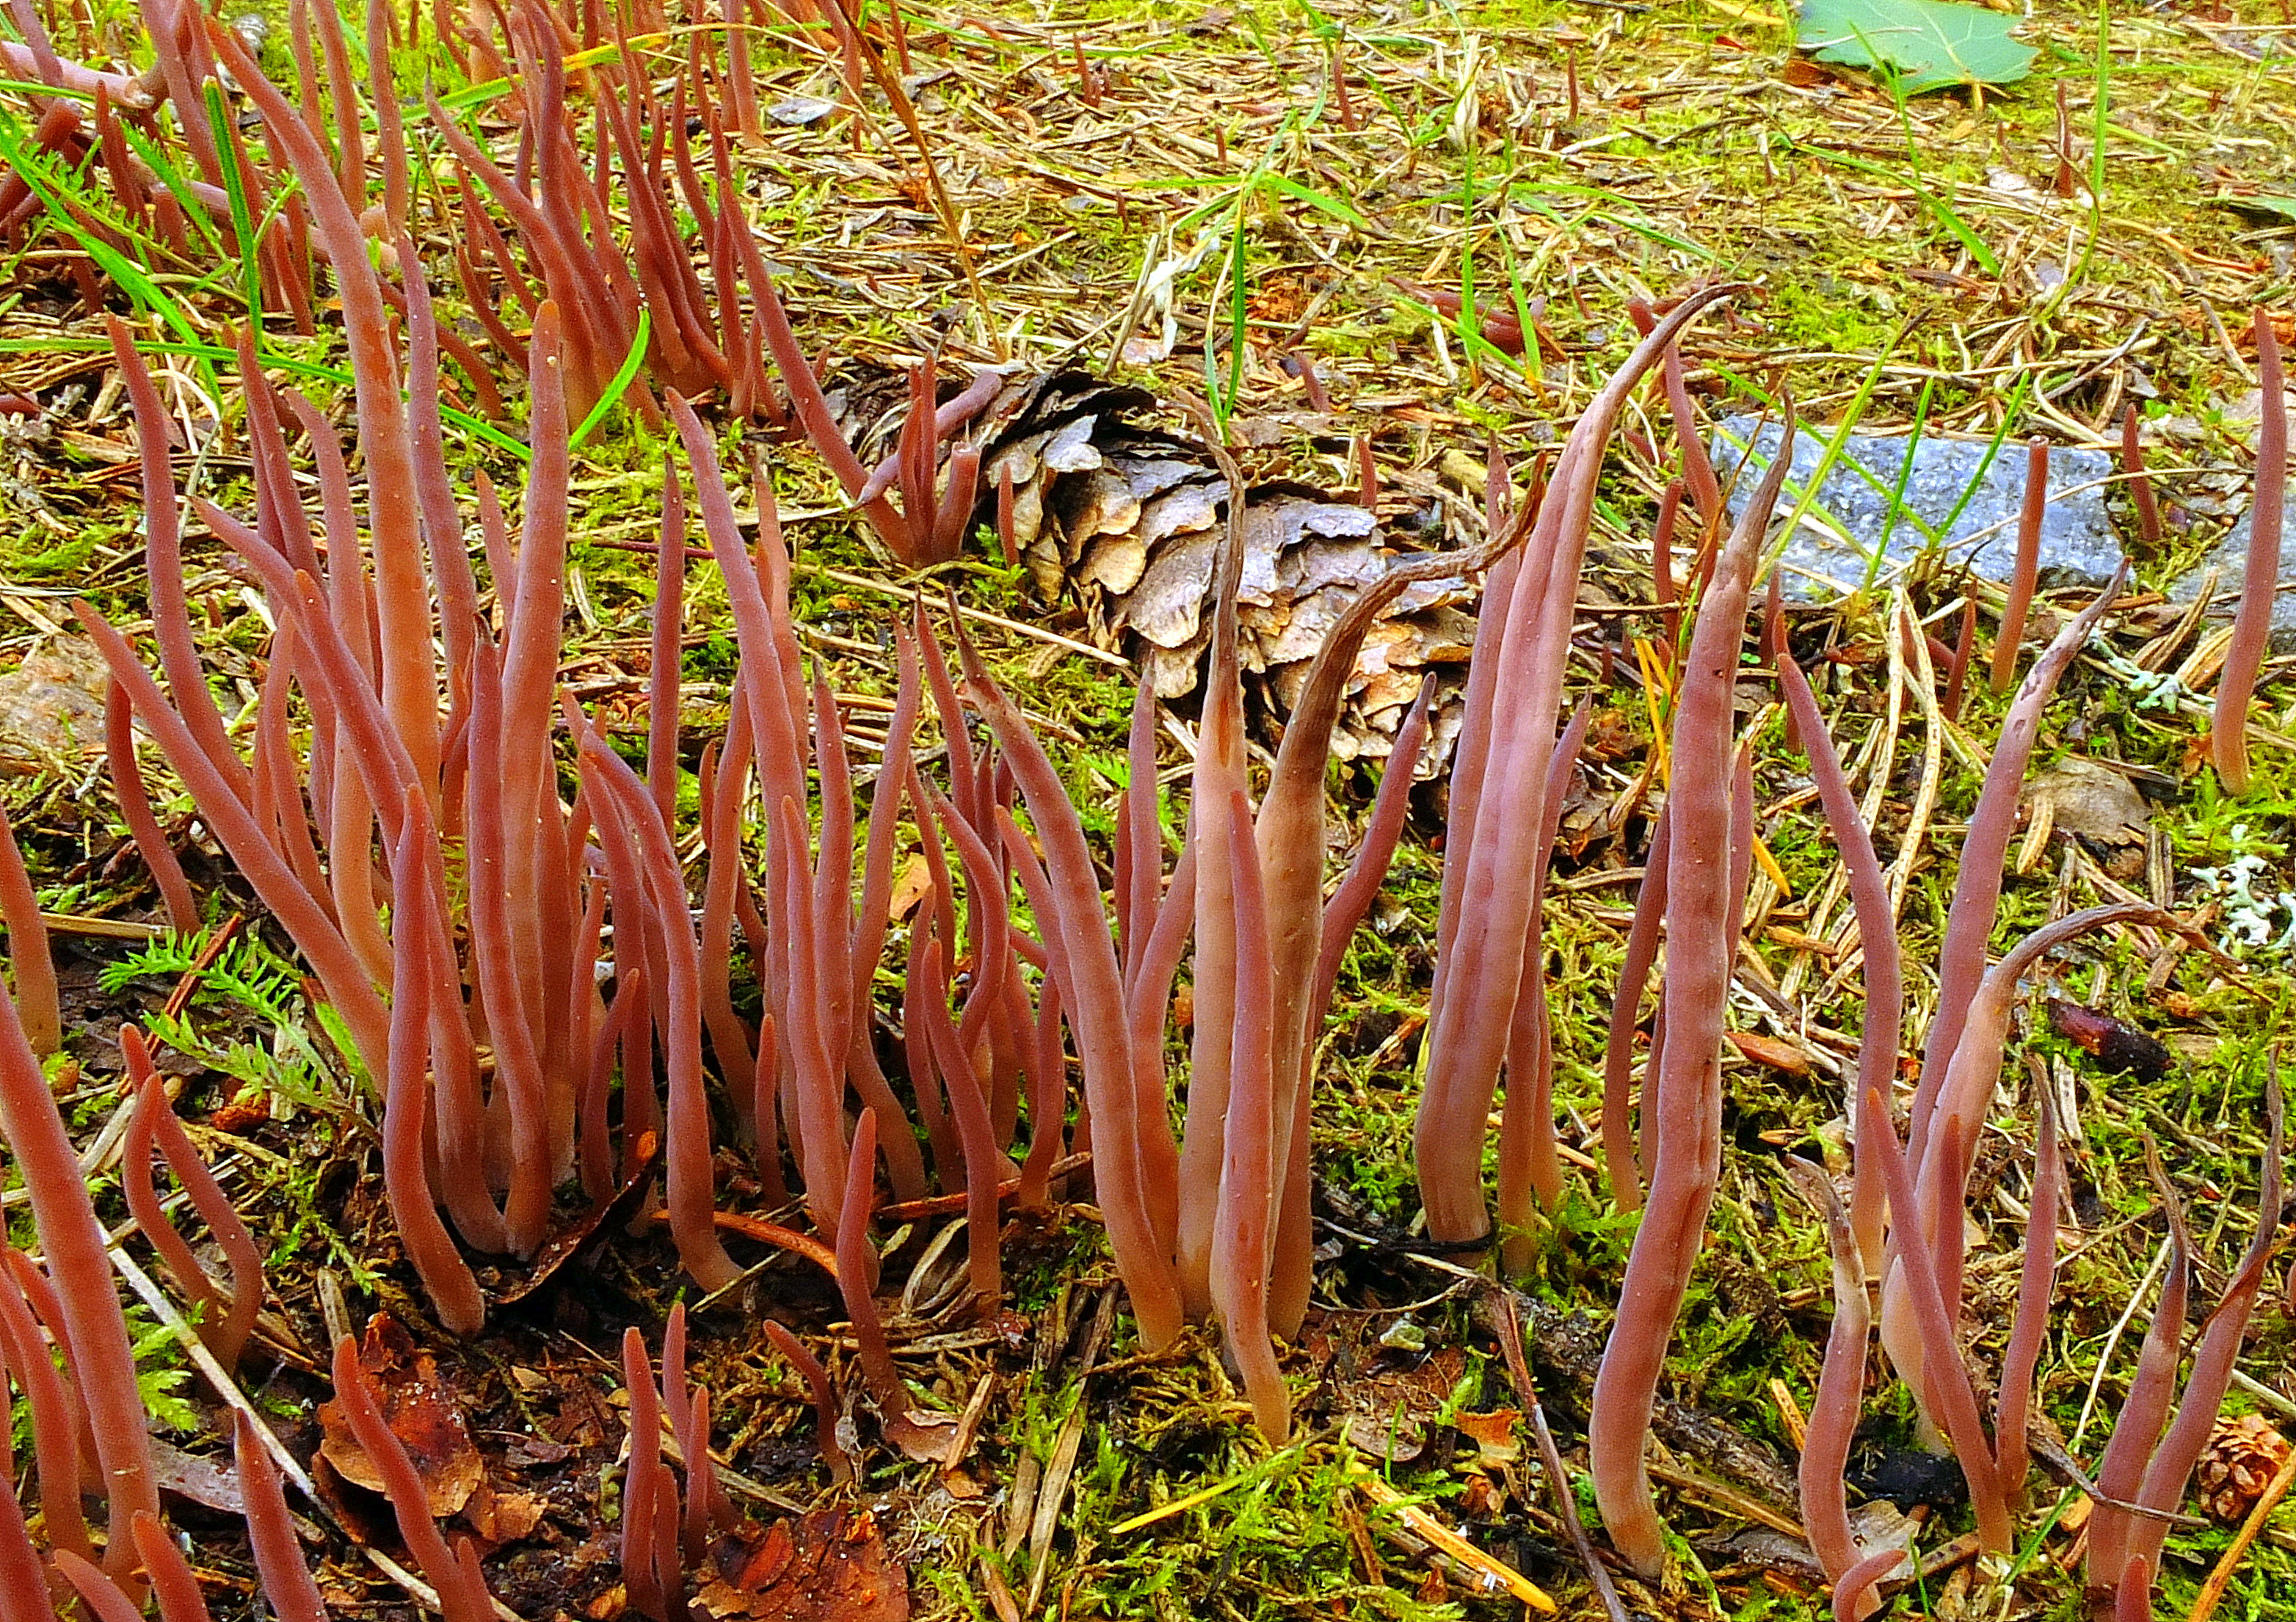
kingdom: Fungi
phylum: Basidiomycota
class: Agaricomycetes
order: Hymenochaetales
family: Rickenellaceae
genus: Alloclavaria
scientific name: Alloclavaria purpurea
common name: Purple spindles
